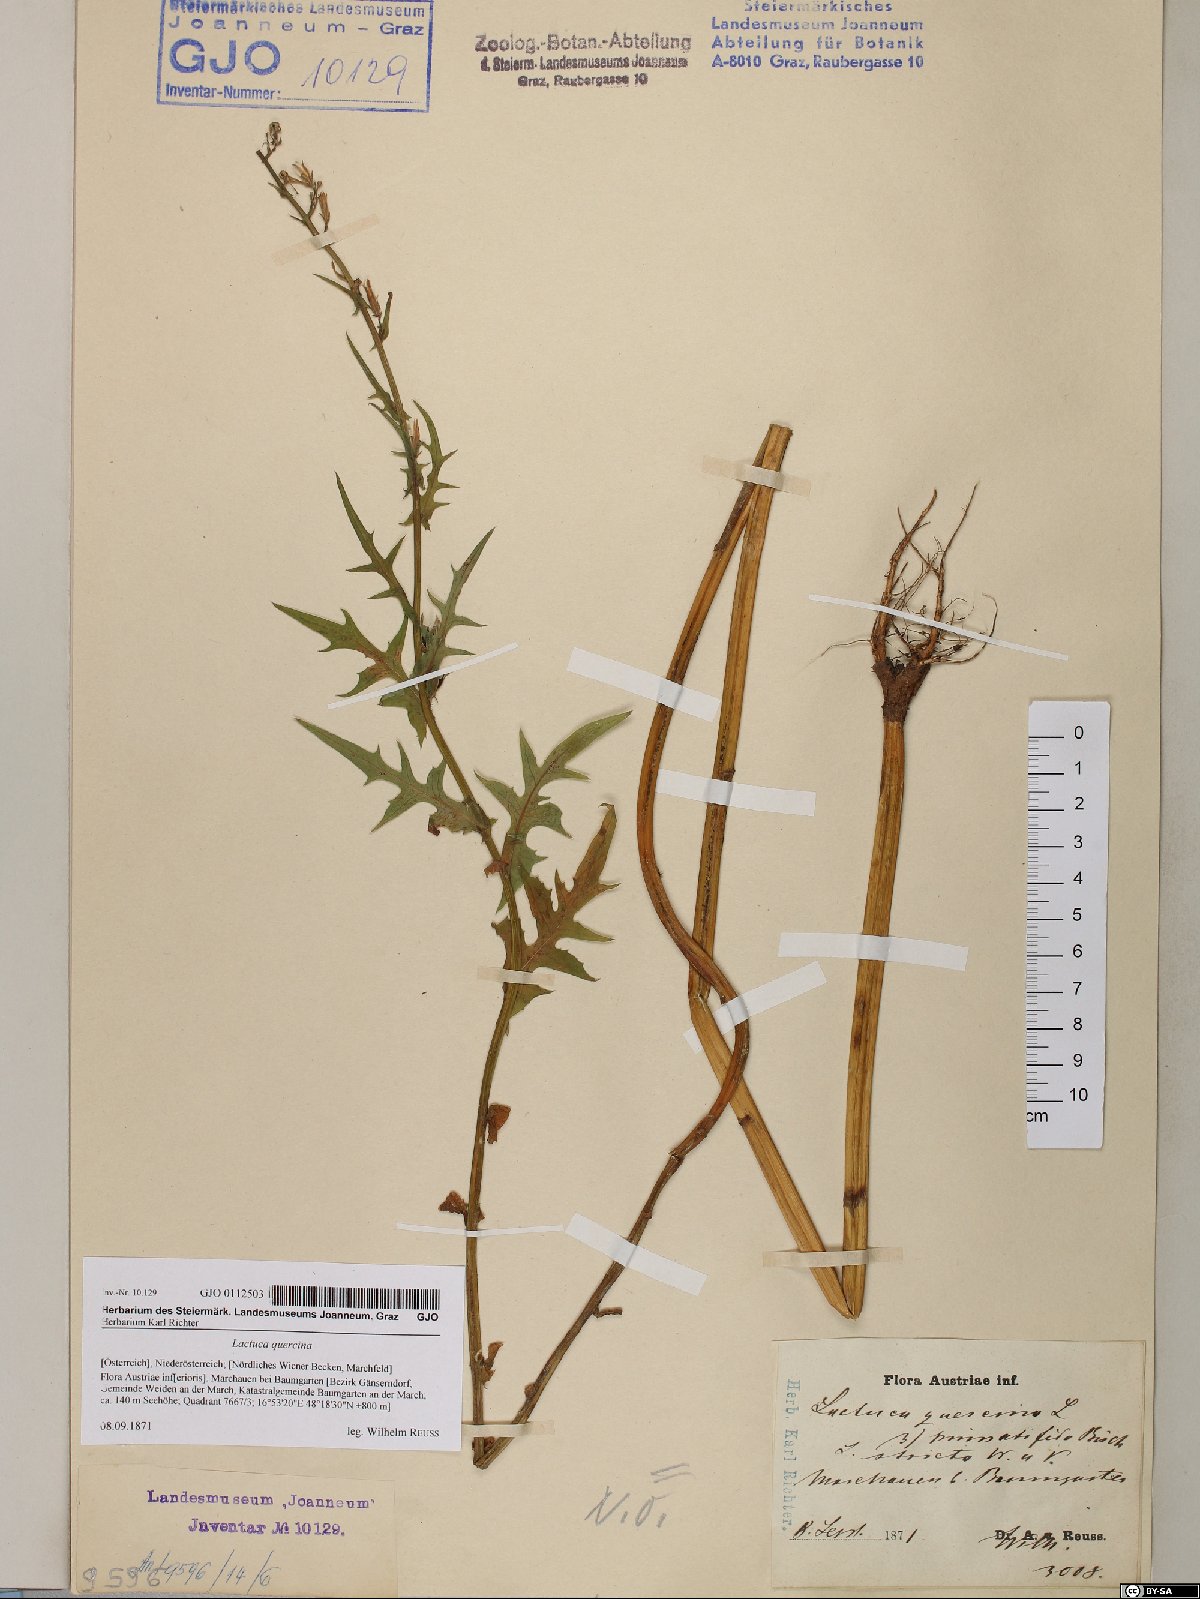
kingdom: Plantae
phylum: Tracheophyta
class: Magnoliopsida
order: Asterales
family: Asteraceae
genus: Lactuca
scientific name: Lactuca quercina
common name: Wild lettuce
